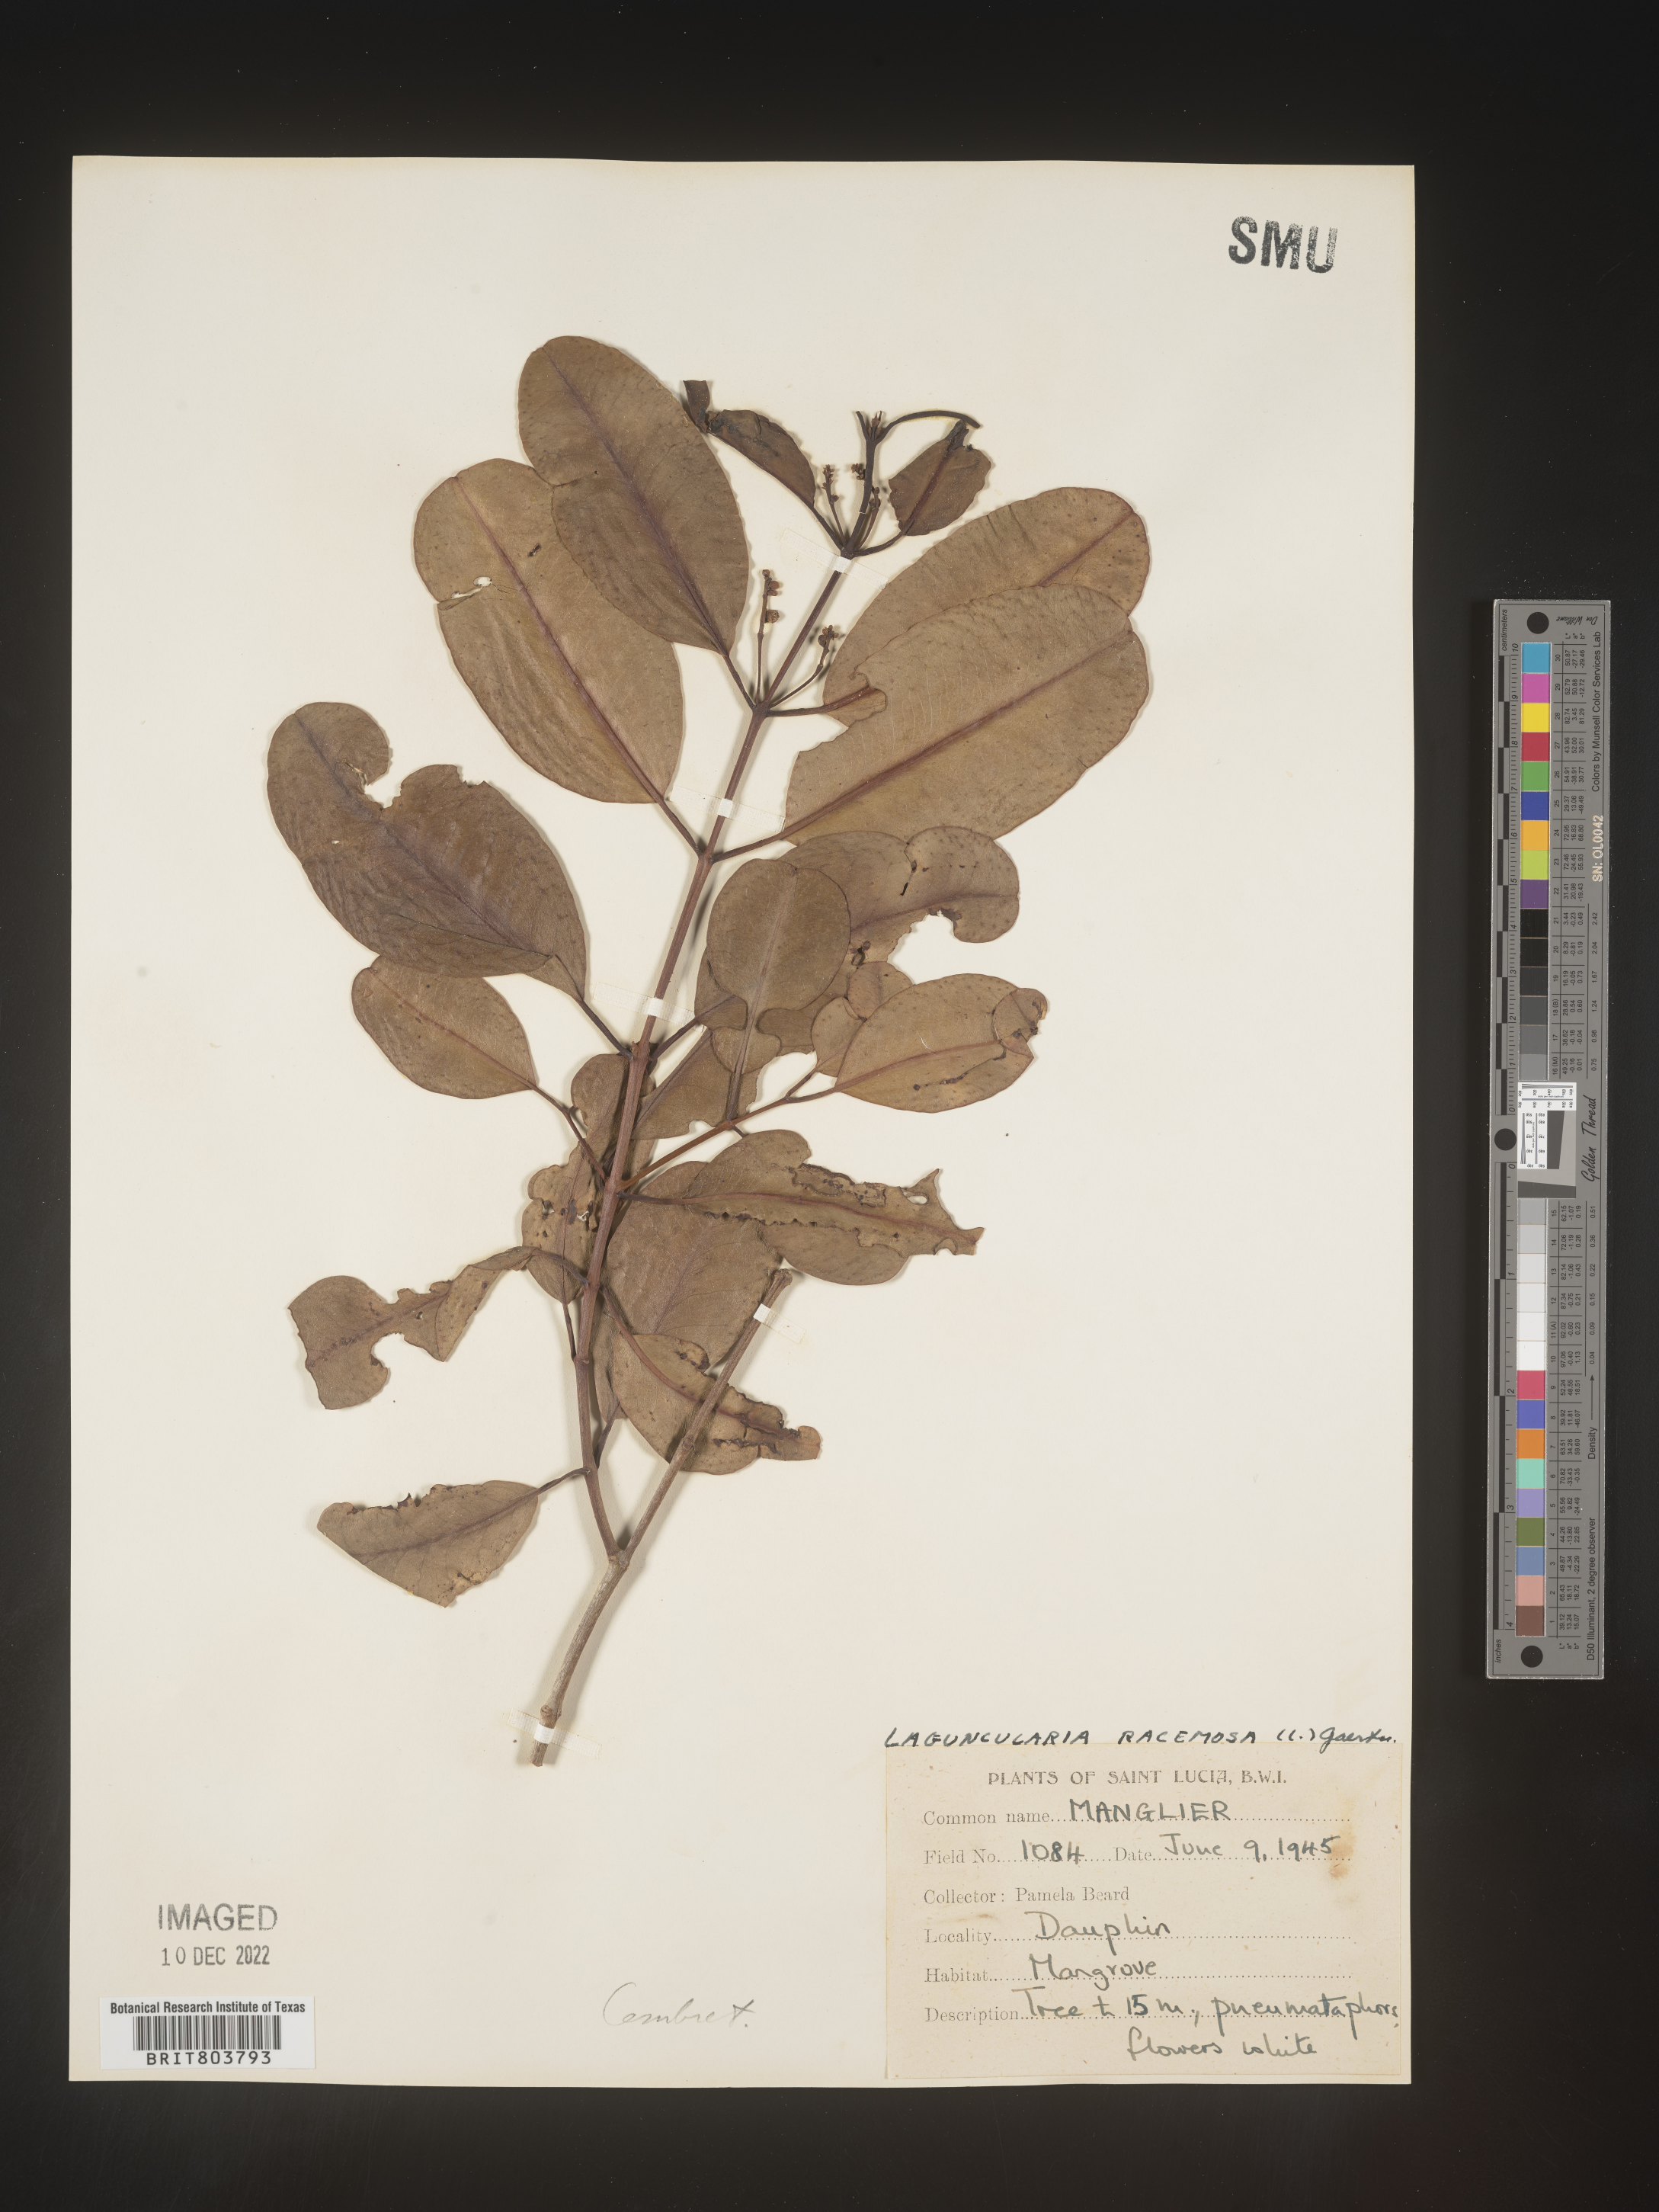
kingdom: Plantae
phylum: Tracheophyta
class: Magnoliopsida
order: Myrtales
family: Combretaceae
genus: Laguncularia
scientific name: Laguncularia
